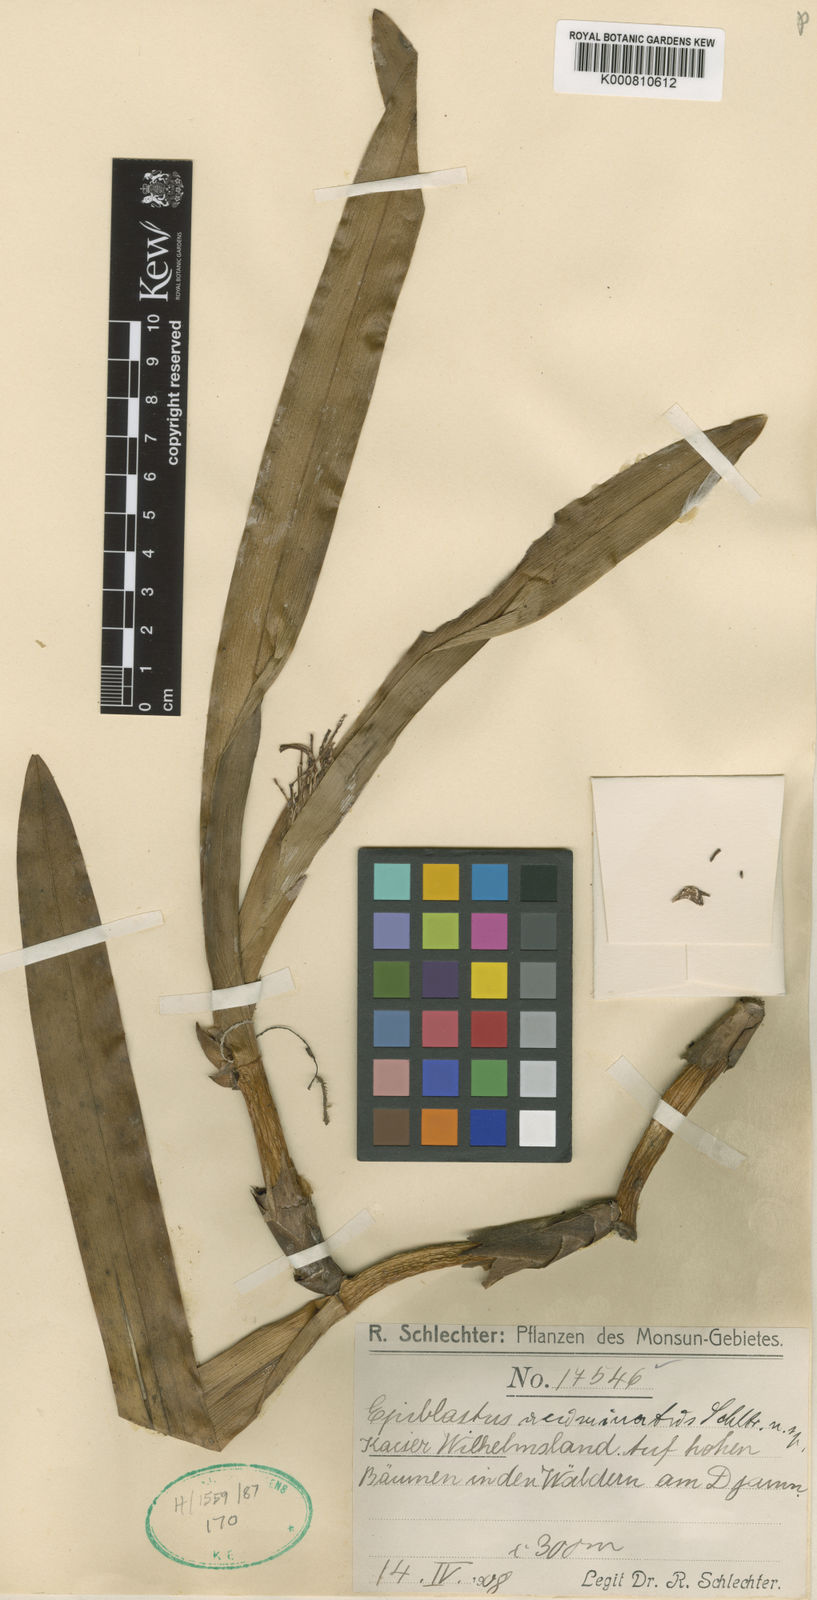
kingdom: Plantae
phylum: Tracheophyta
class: Liliopsida
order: Asparagales
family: Orchidaceae
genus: Epiblastus
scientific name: Epiblastus acuminatus
